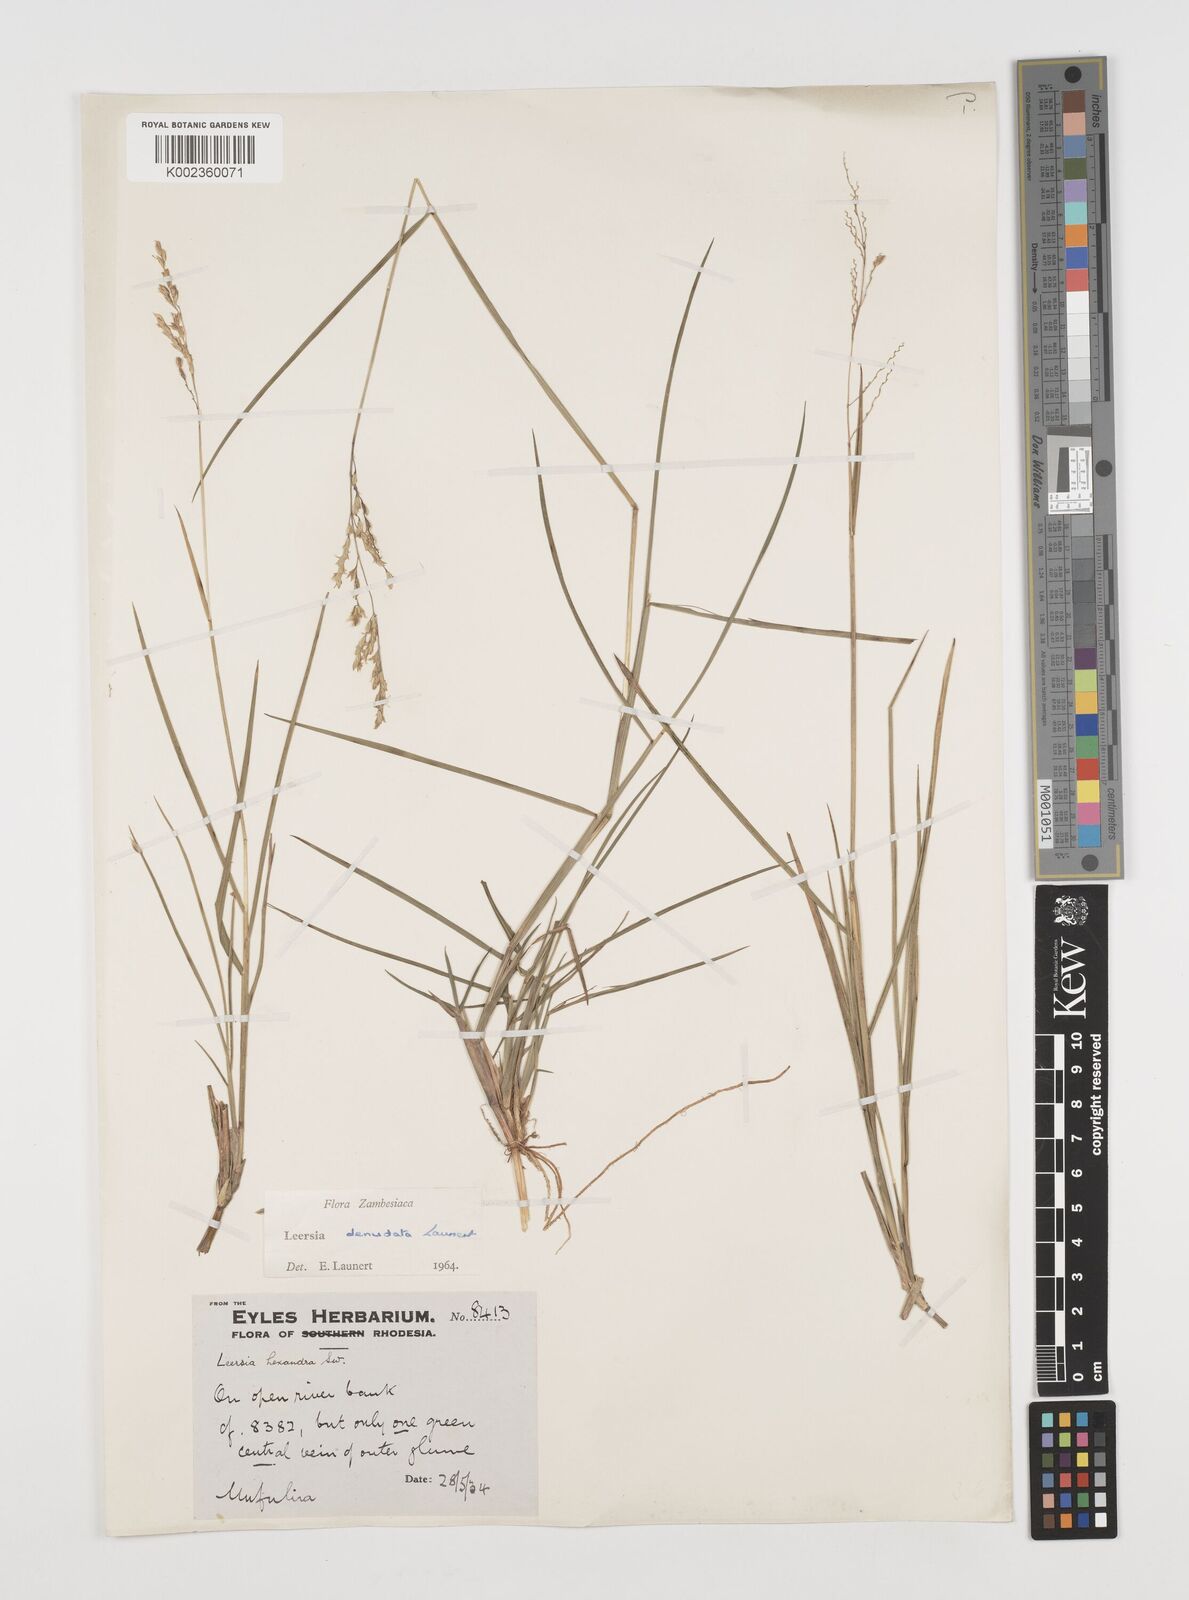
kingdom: Plantae
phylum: Tracheophyta
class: Liliopsida
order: Poales
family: Poaceae
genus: Leersia
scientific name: Leersia denudata
